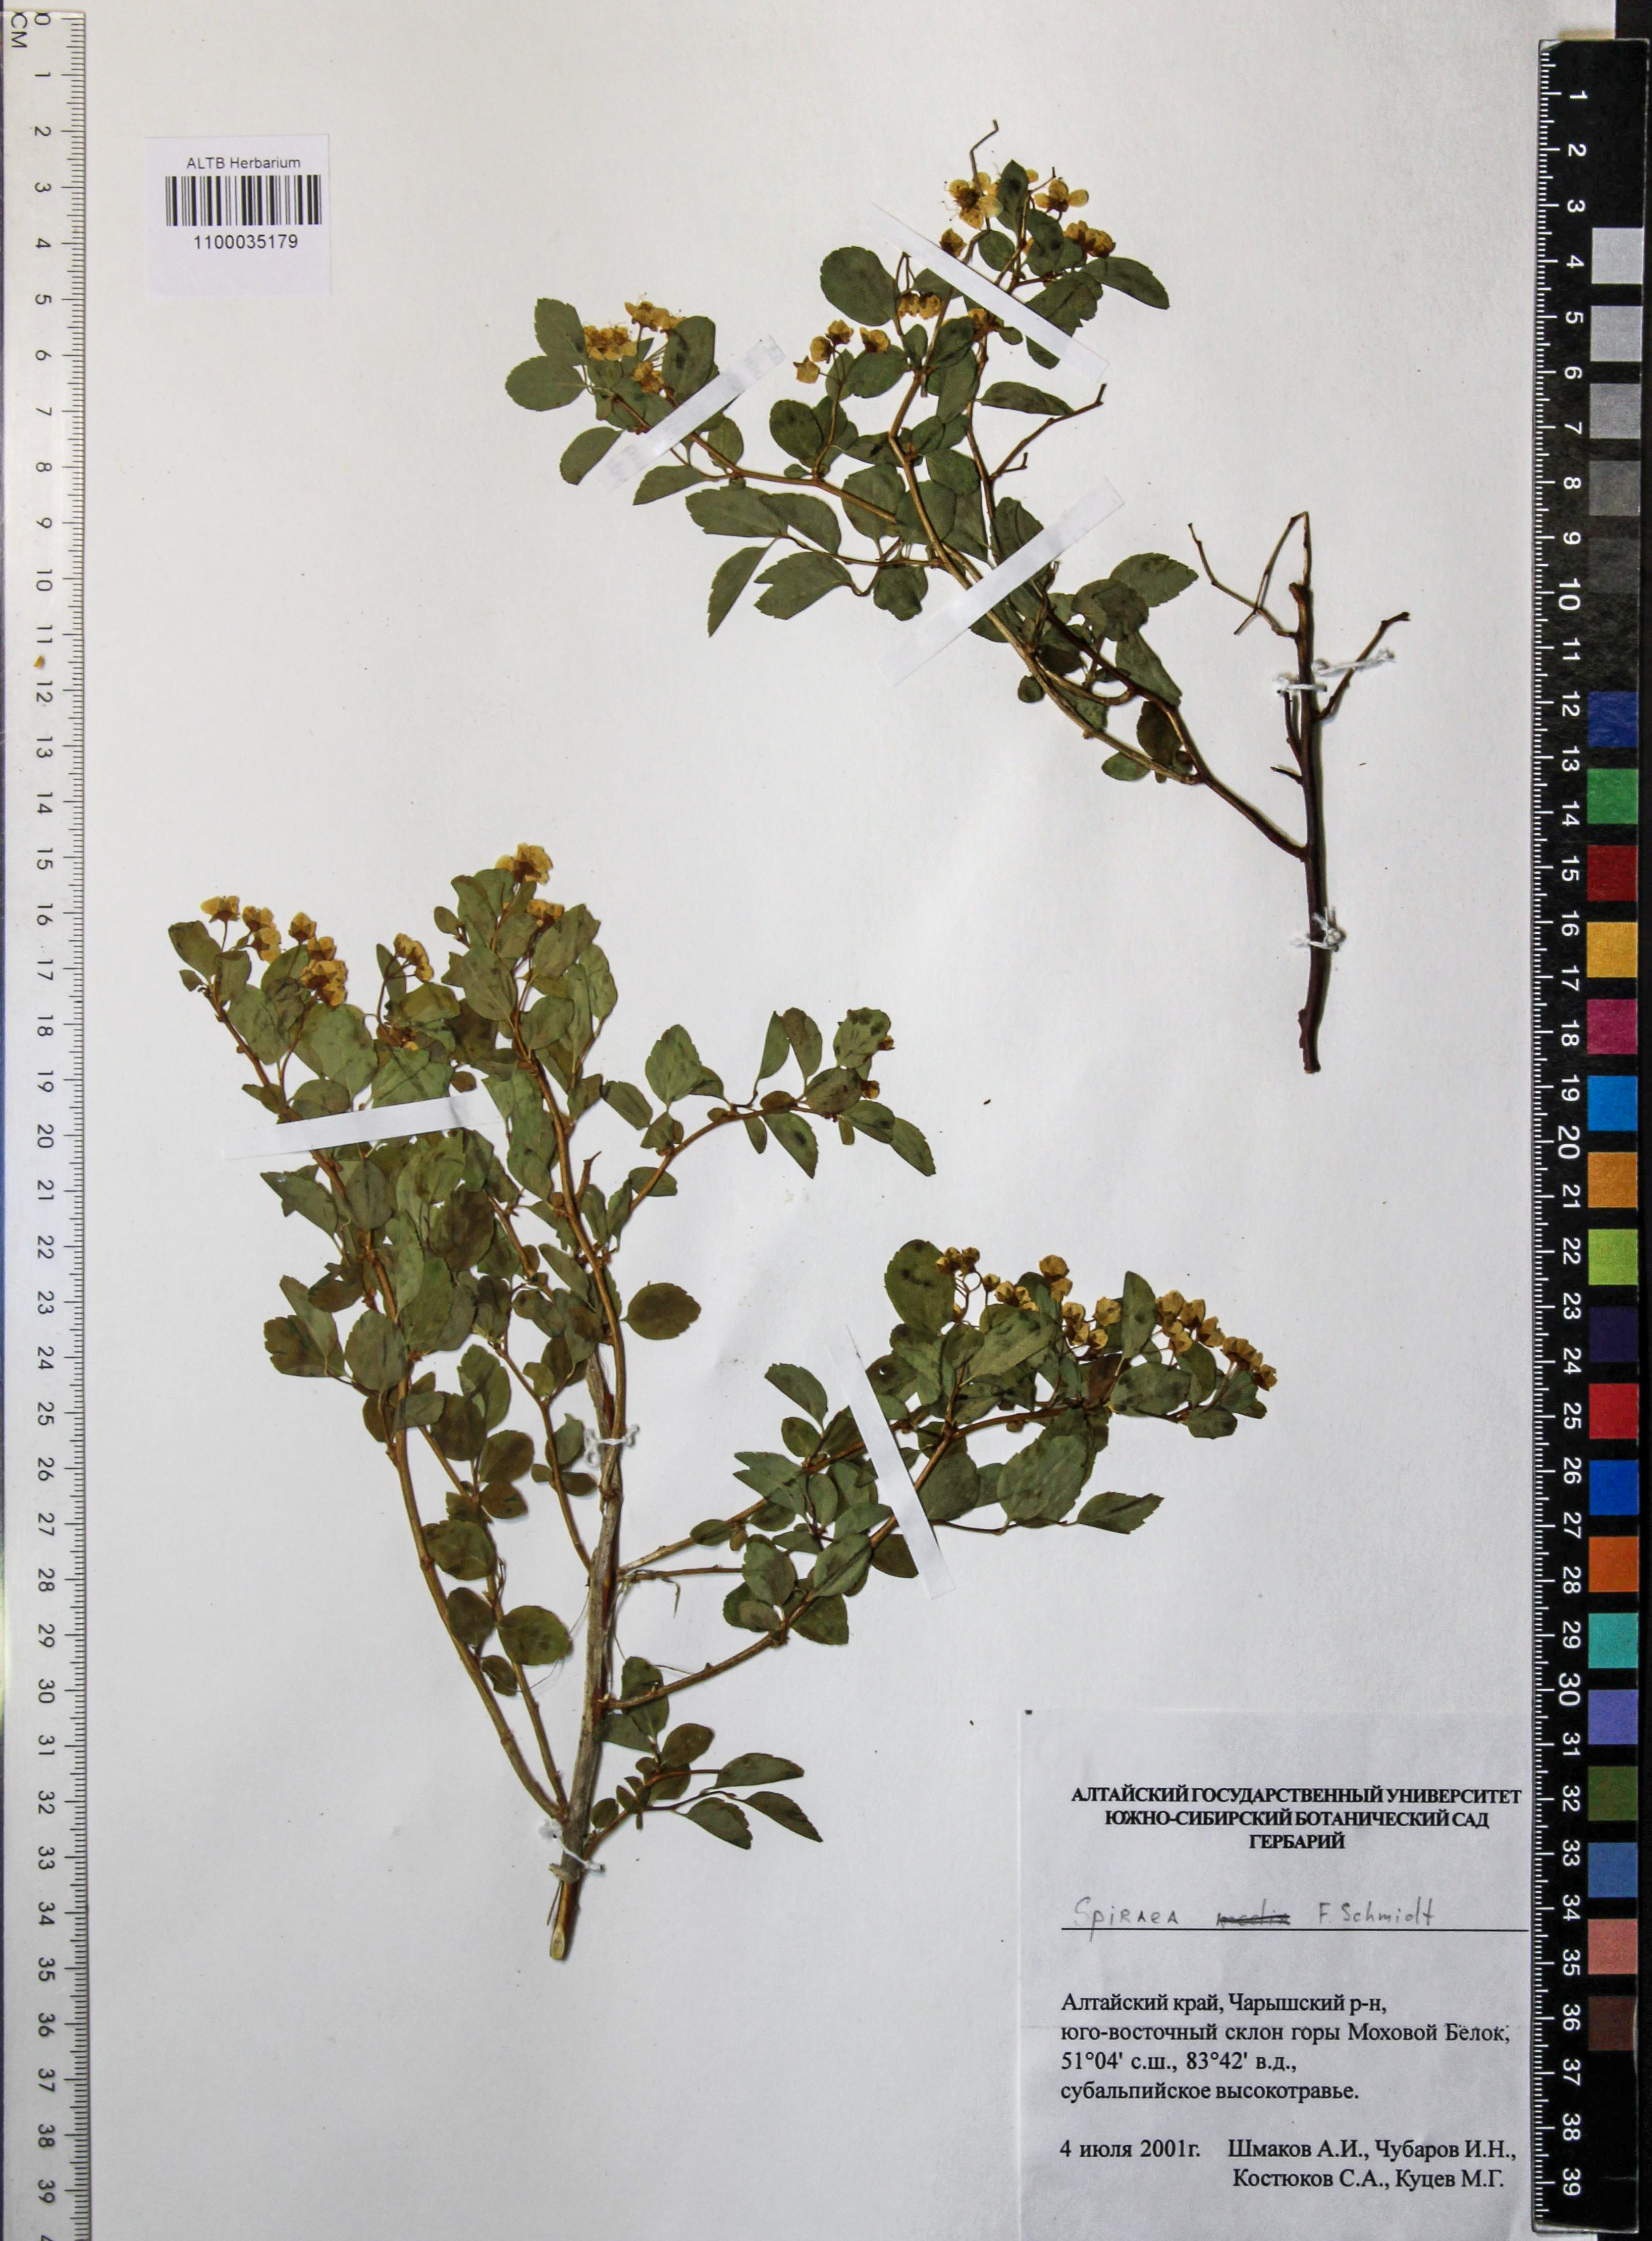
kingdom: Plantae
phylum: Tracheophyta
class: Magnoliopsida
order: Rosales
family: Rosaceae
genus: Spiraea
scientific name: Spiraea media
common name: Russian spiraea
